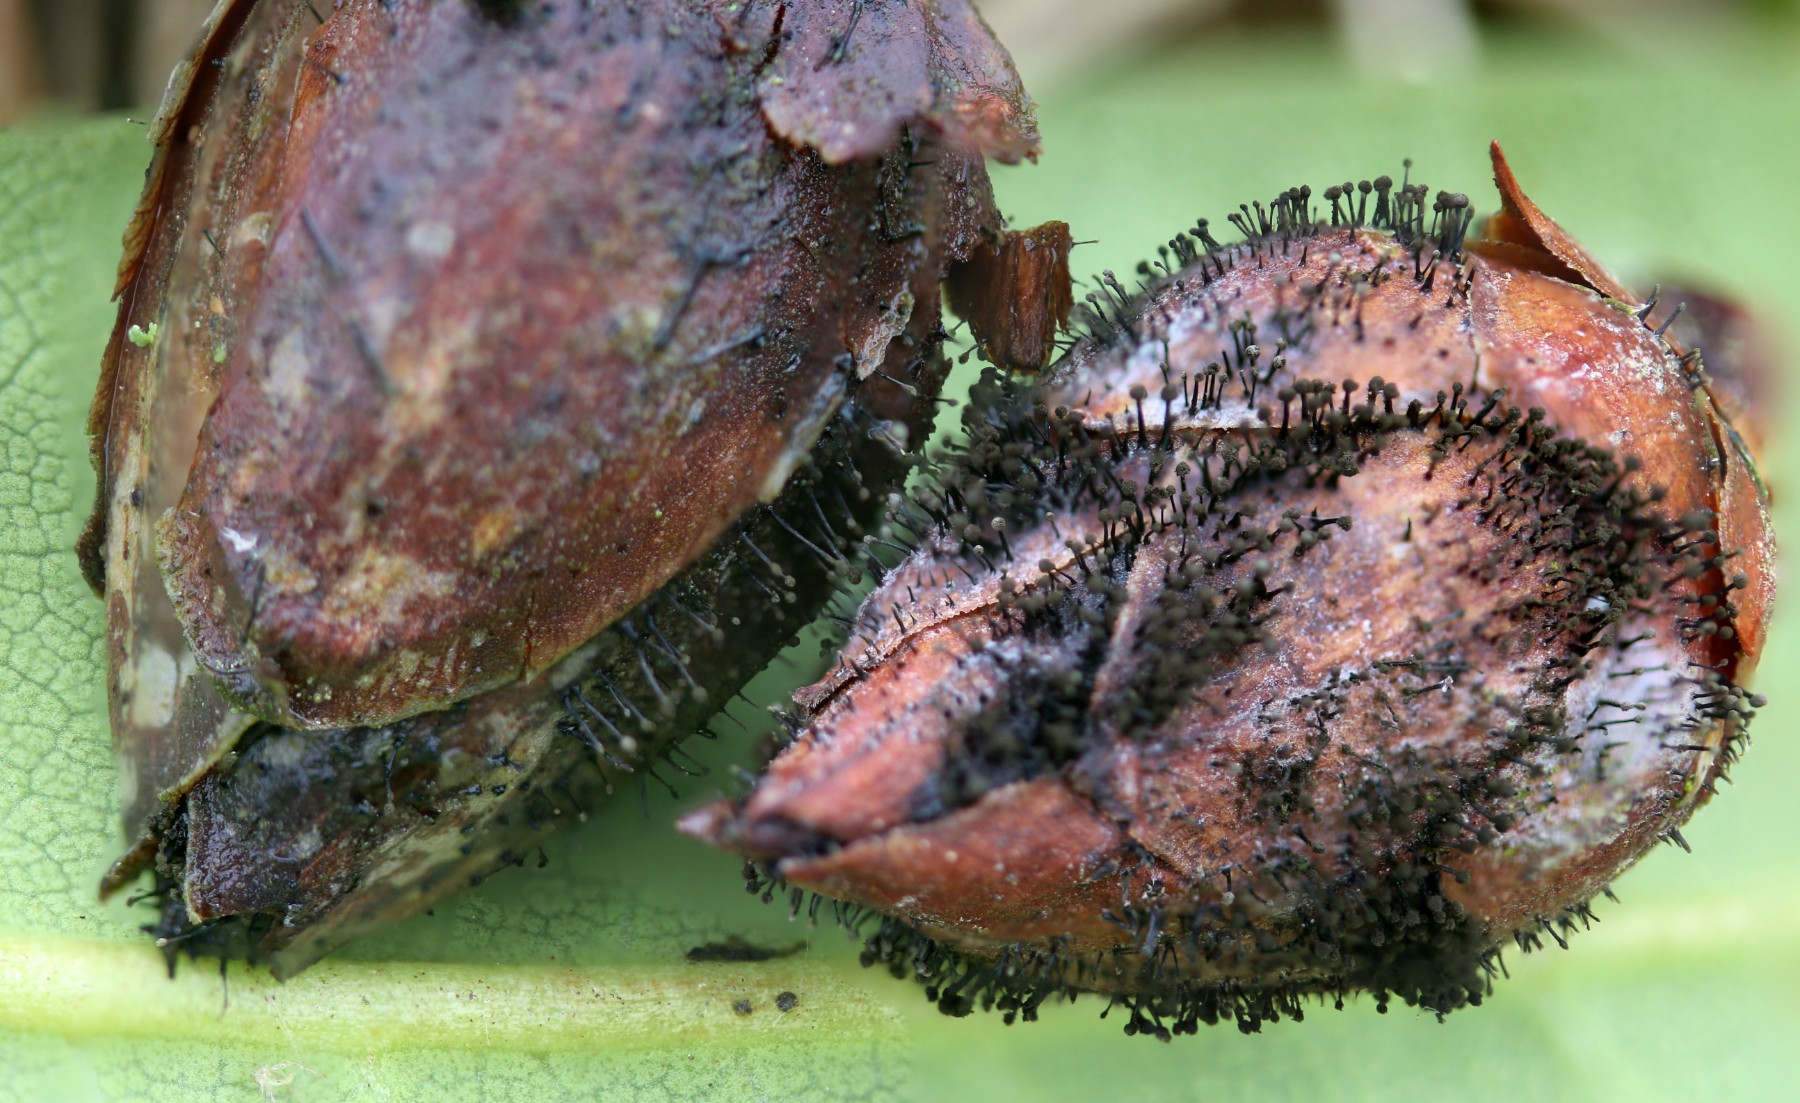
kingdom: Fungi
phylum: Ascomycota
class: Dothideomycetes
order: Pleosporales
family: Melanommataceae
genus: Seifertia
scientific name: Seifertia azaleae
